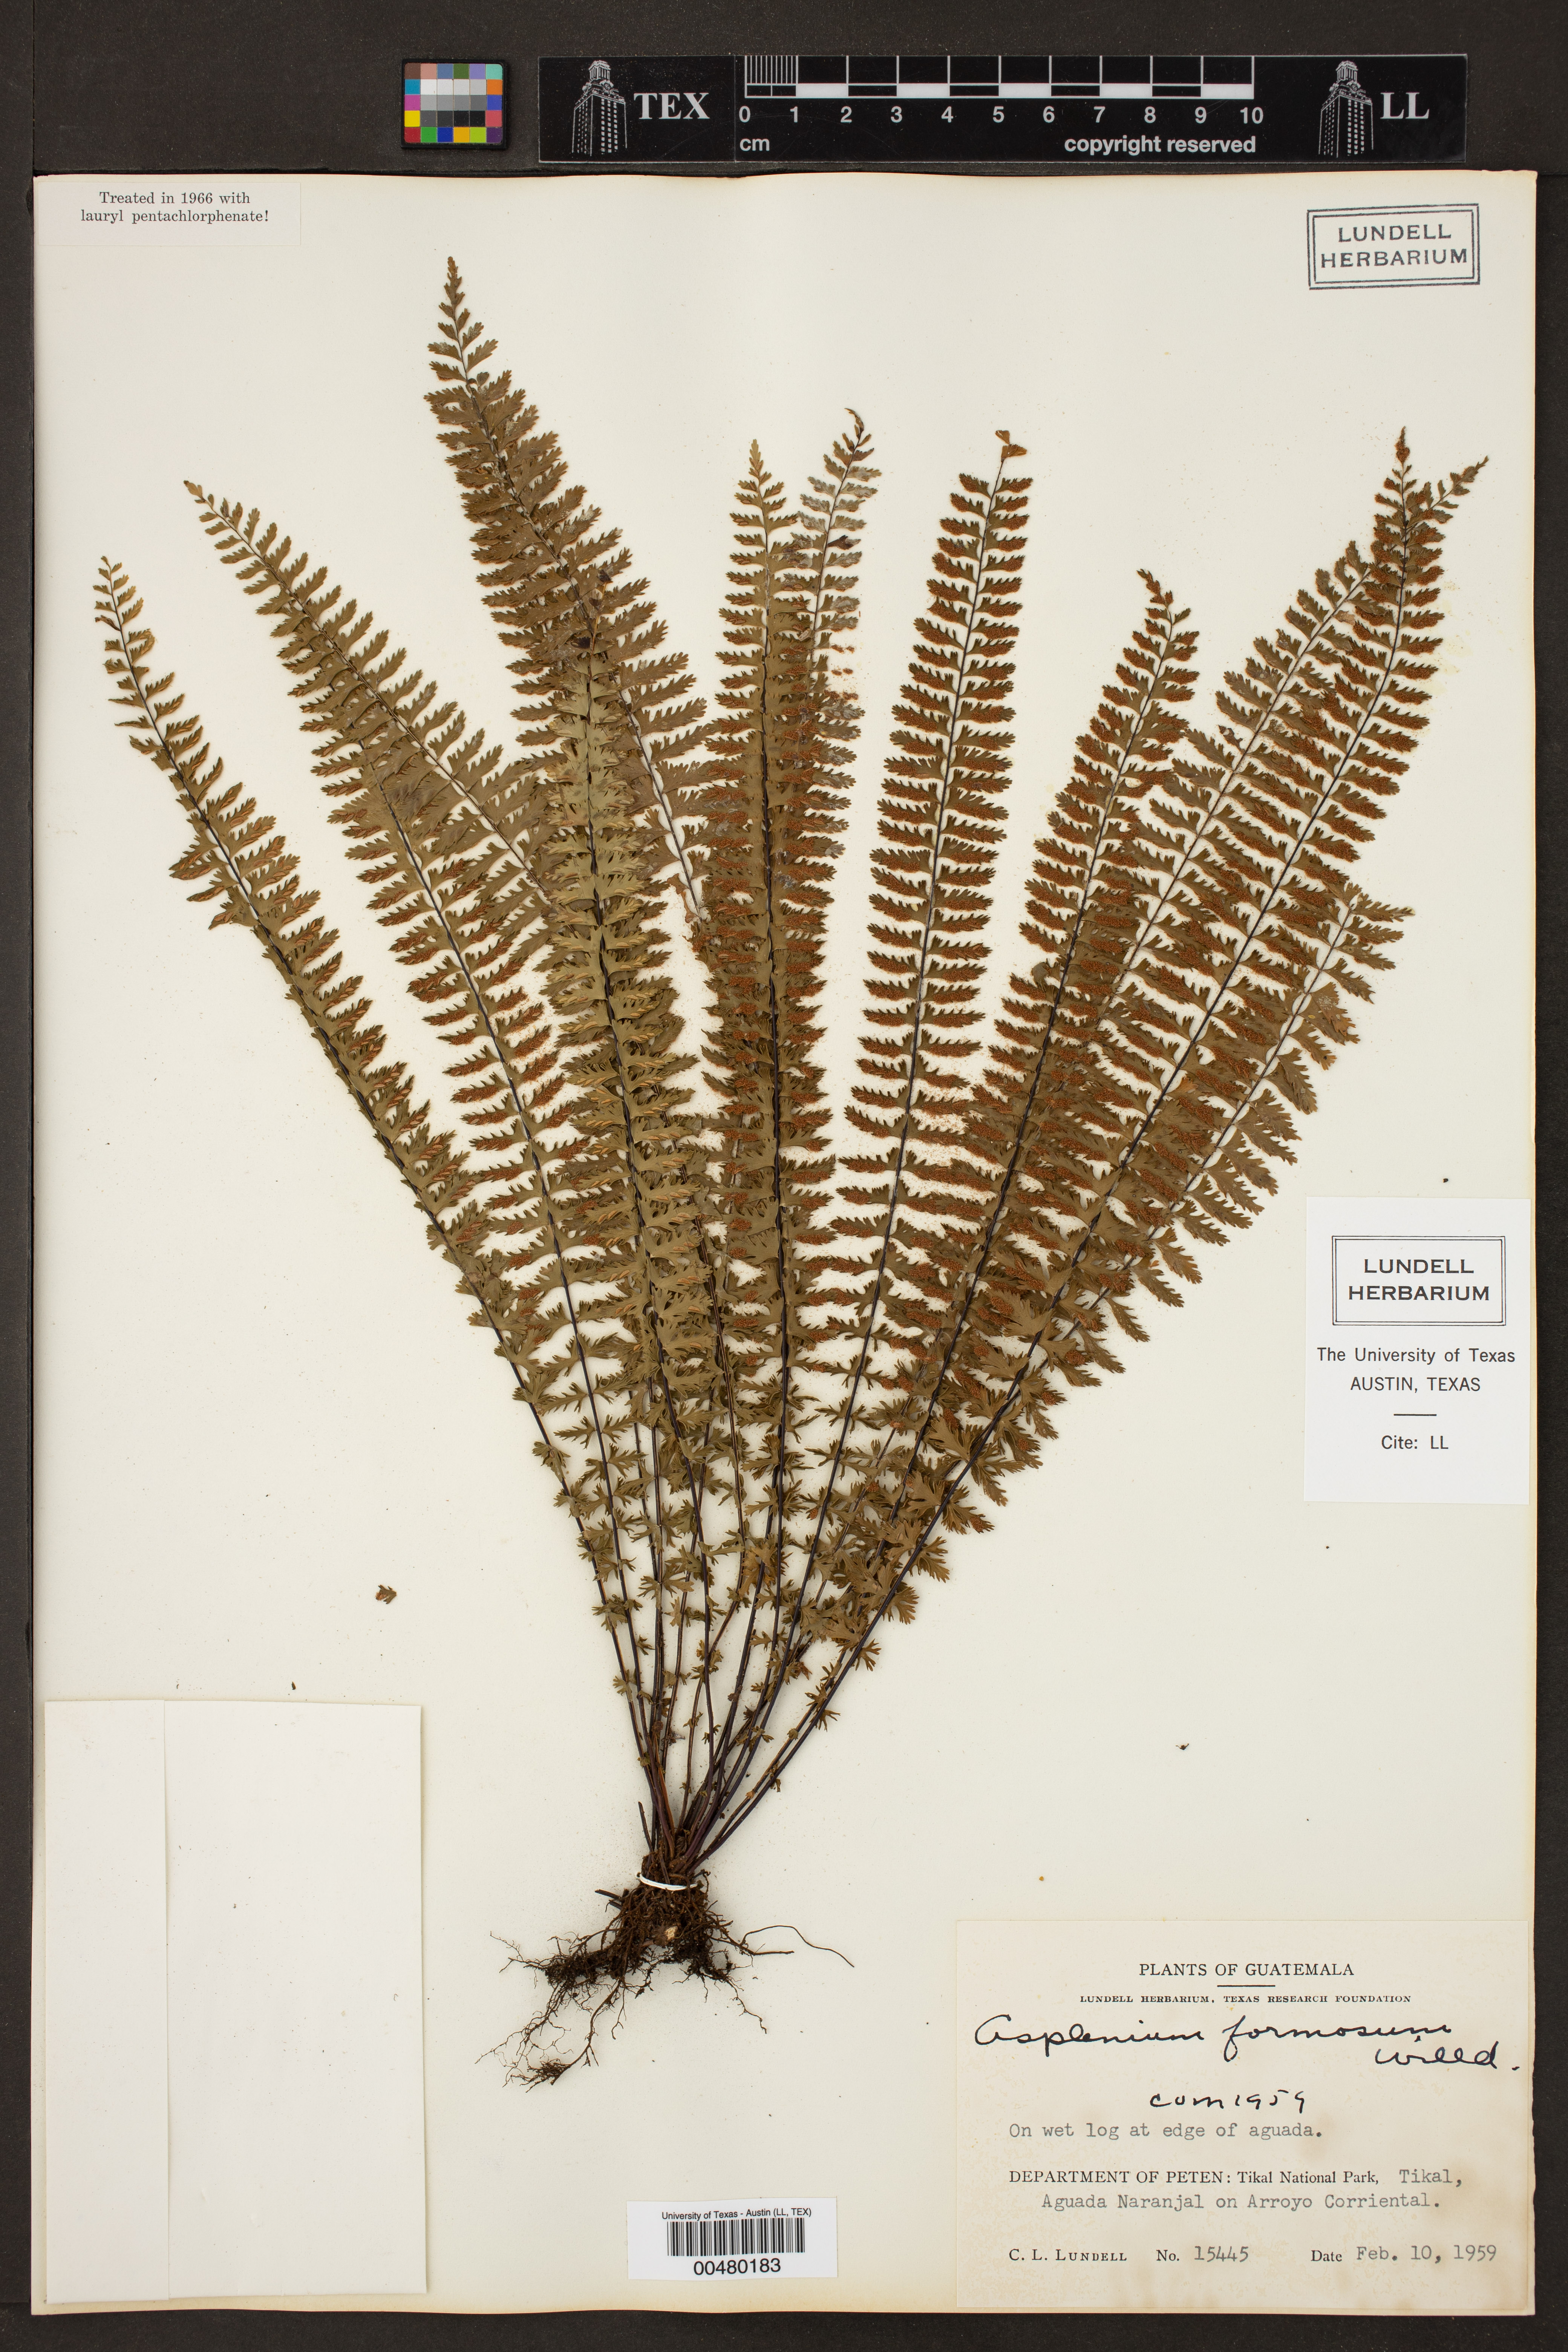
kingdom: Plantae
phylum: Tracheophyta
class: Polypodiopsida
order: Polypodiales
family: Aspleniaceae
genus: Asplenium
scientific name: Asplenium formosum
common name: Showy spleenwort
